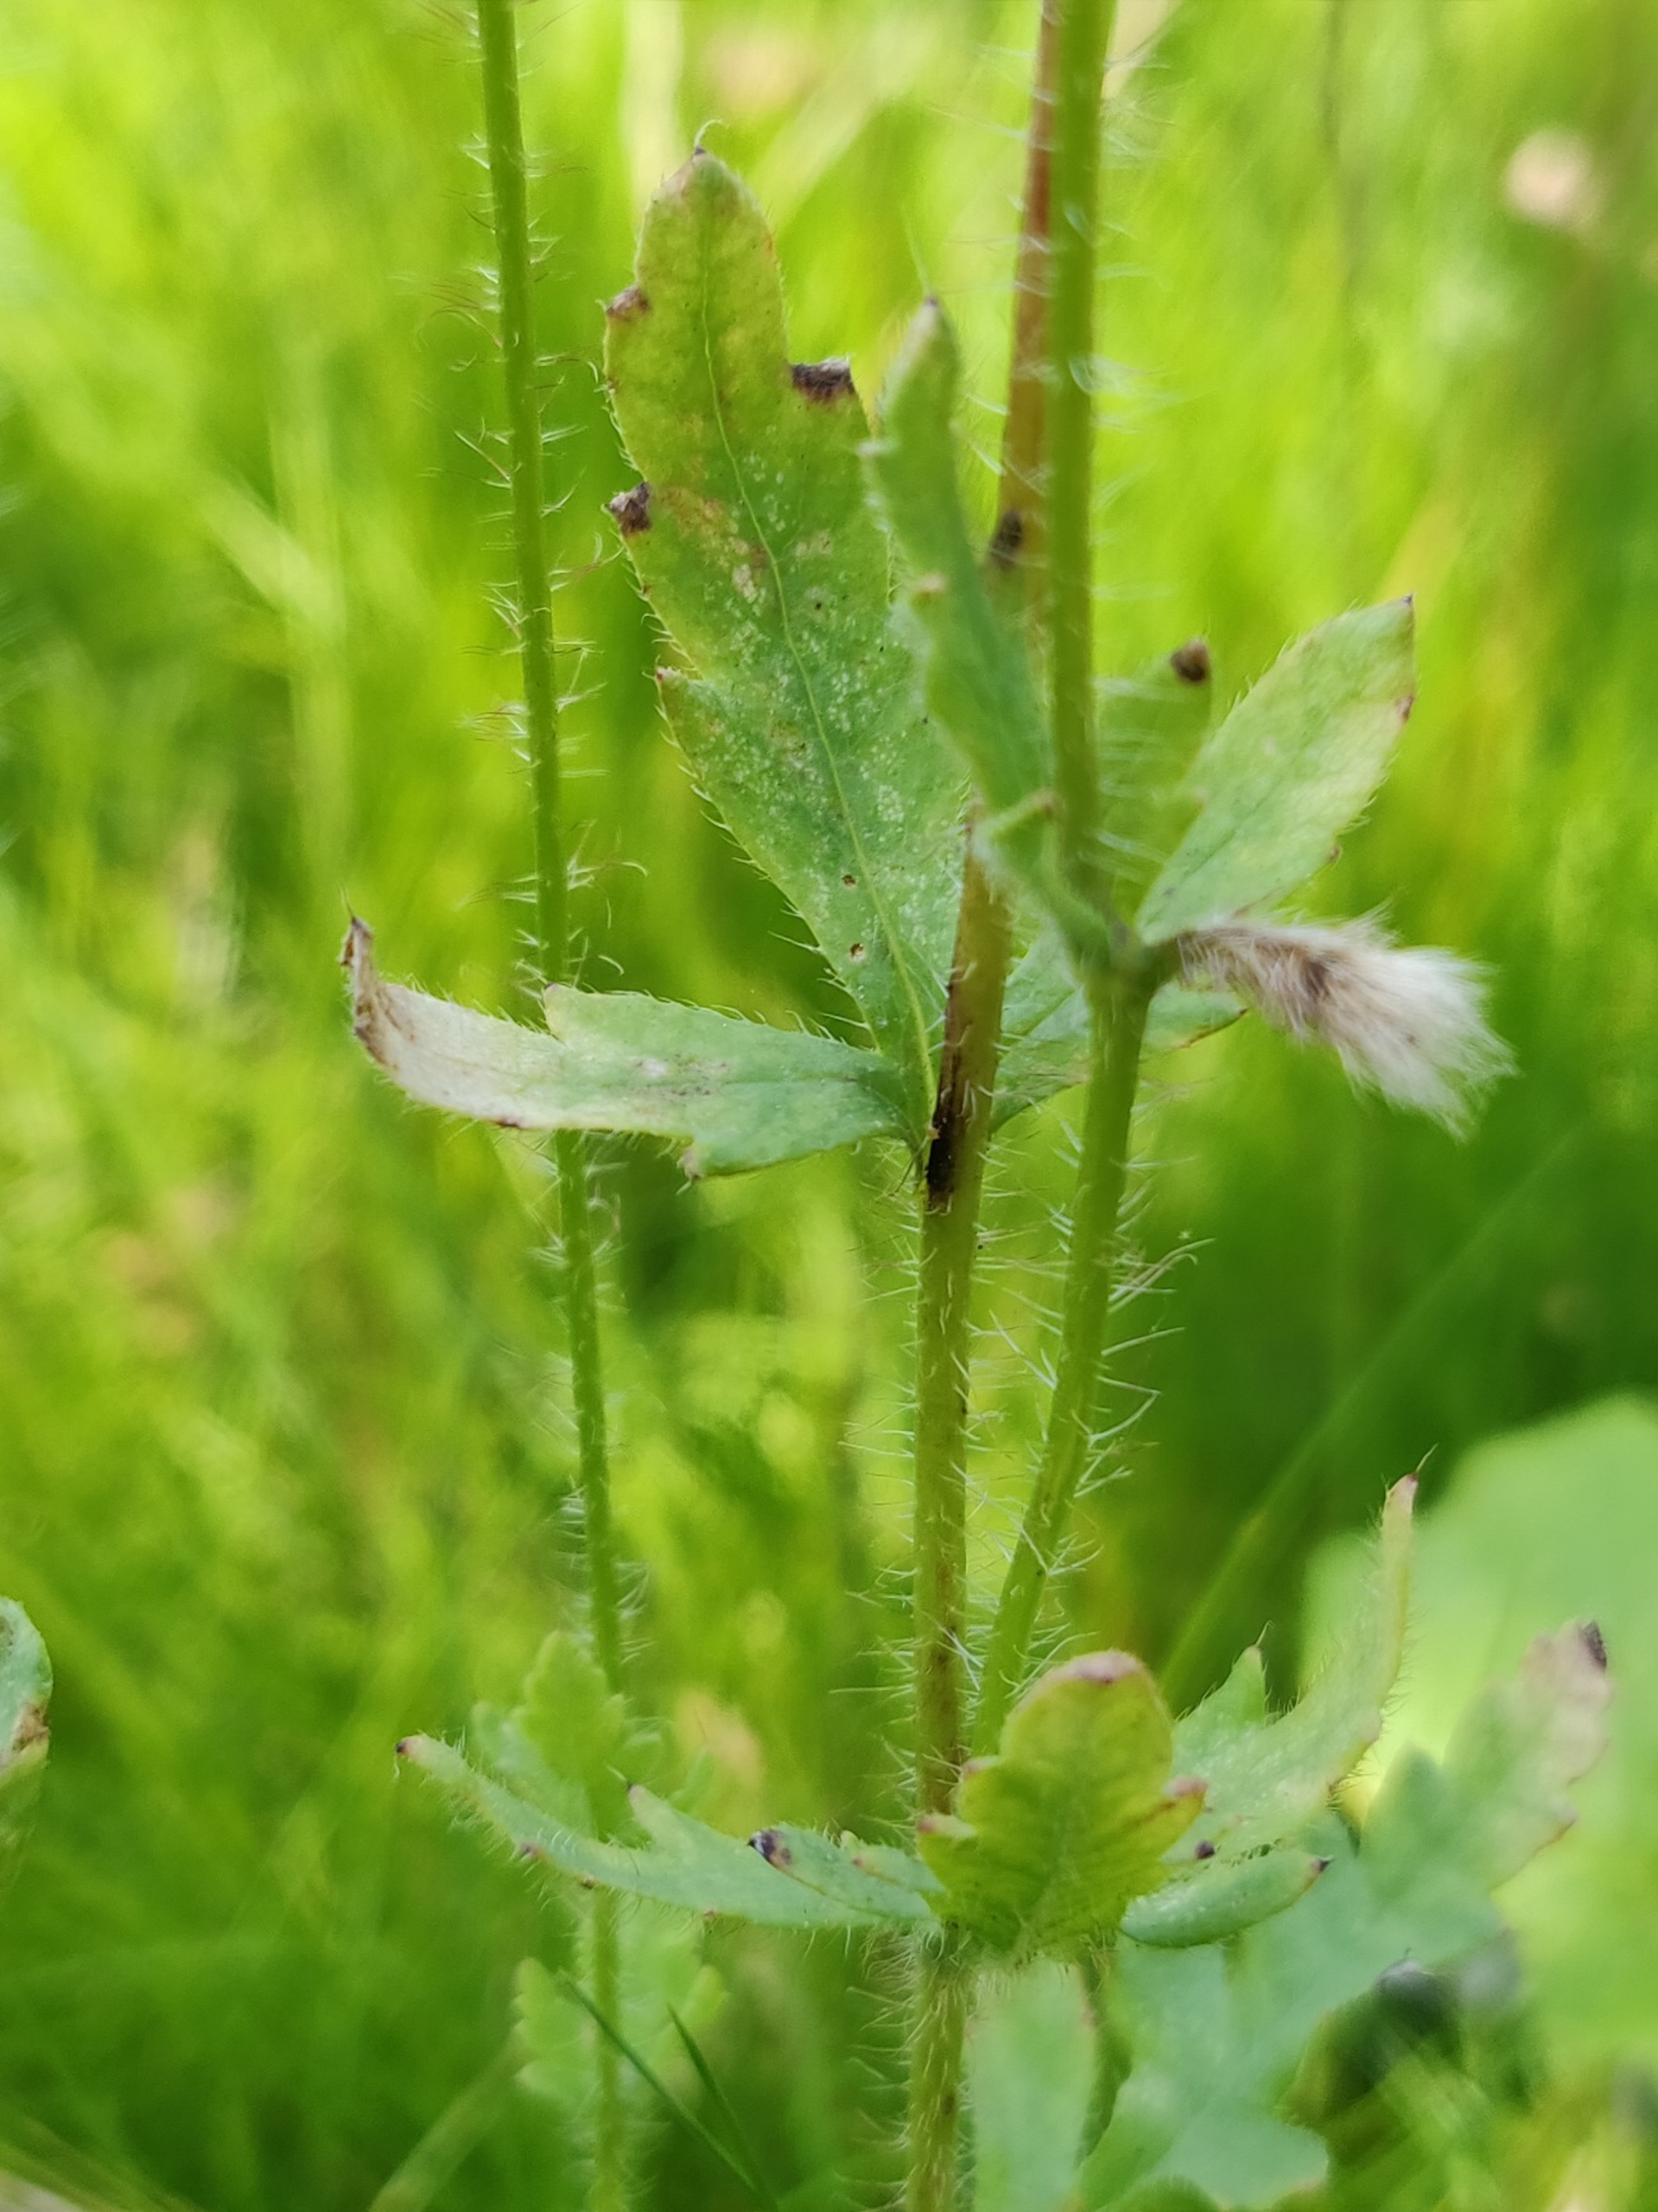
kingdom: Plantae
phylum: Tracheophyta
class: Magnoliopsida
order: Ranunculales
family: Papaveraceae
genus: Papaver
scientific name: Papaver rhoeas
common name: Korn-valmue
